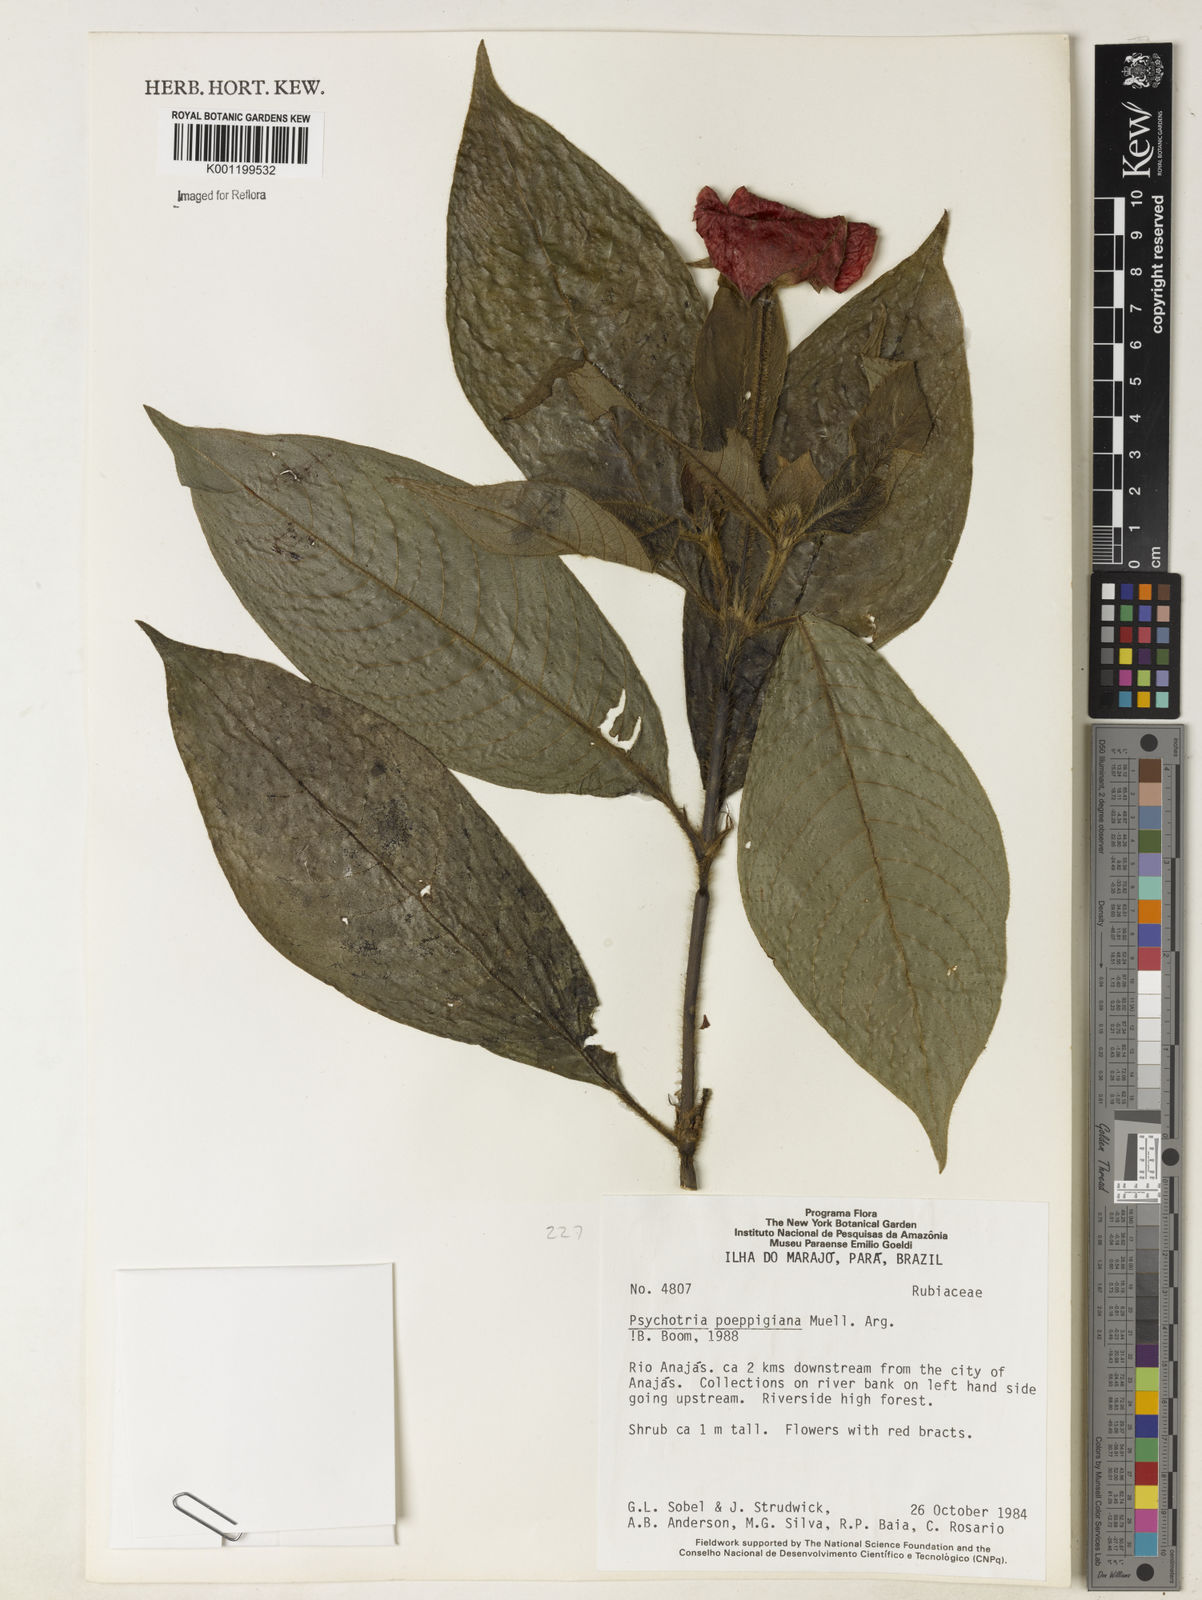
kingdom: Plantae
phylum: Tracheophyta
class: Magnoliopsida
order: Gentianales
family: Rubiaceae
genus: Psychotria
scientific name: Psychotria
